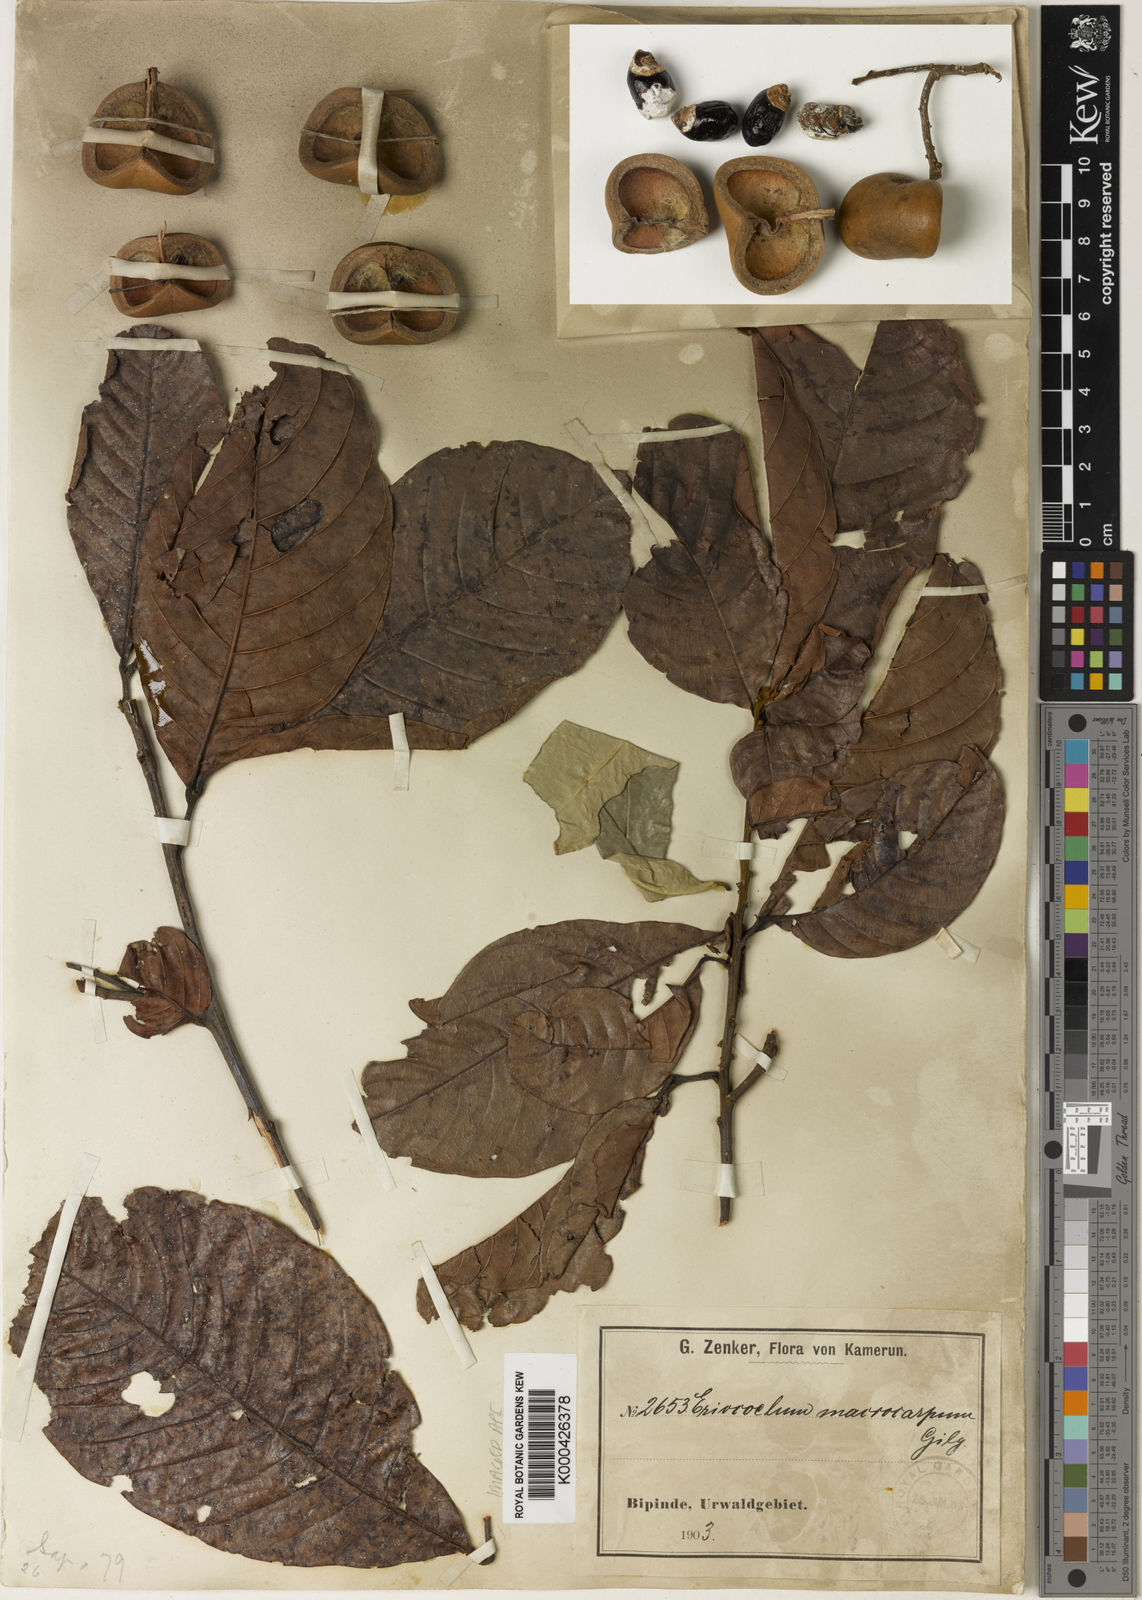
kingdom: Plantae
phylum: Tracheophyta
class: Magnoliopsida
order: Sapindales
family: Sapindaceae
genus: Eriocoelum
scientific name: Eriocoelum macrocarpum
